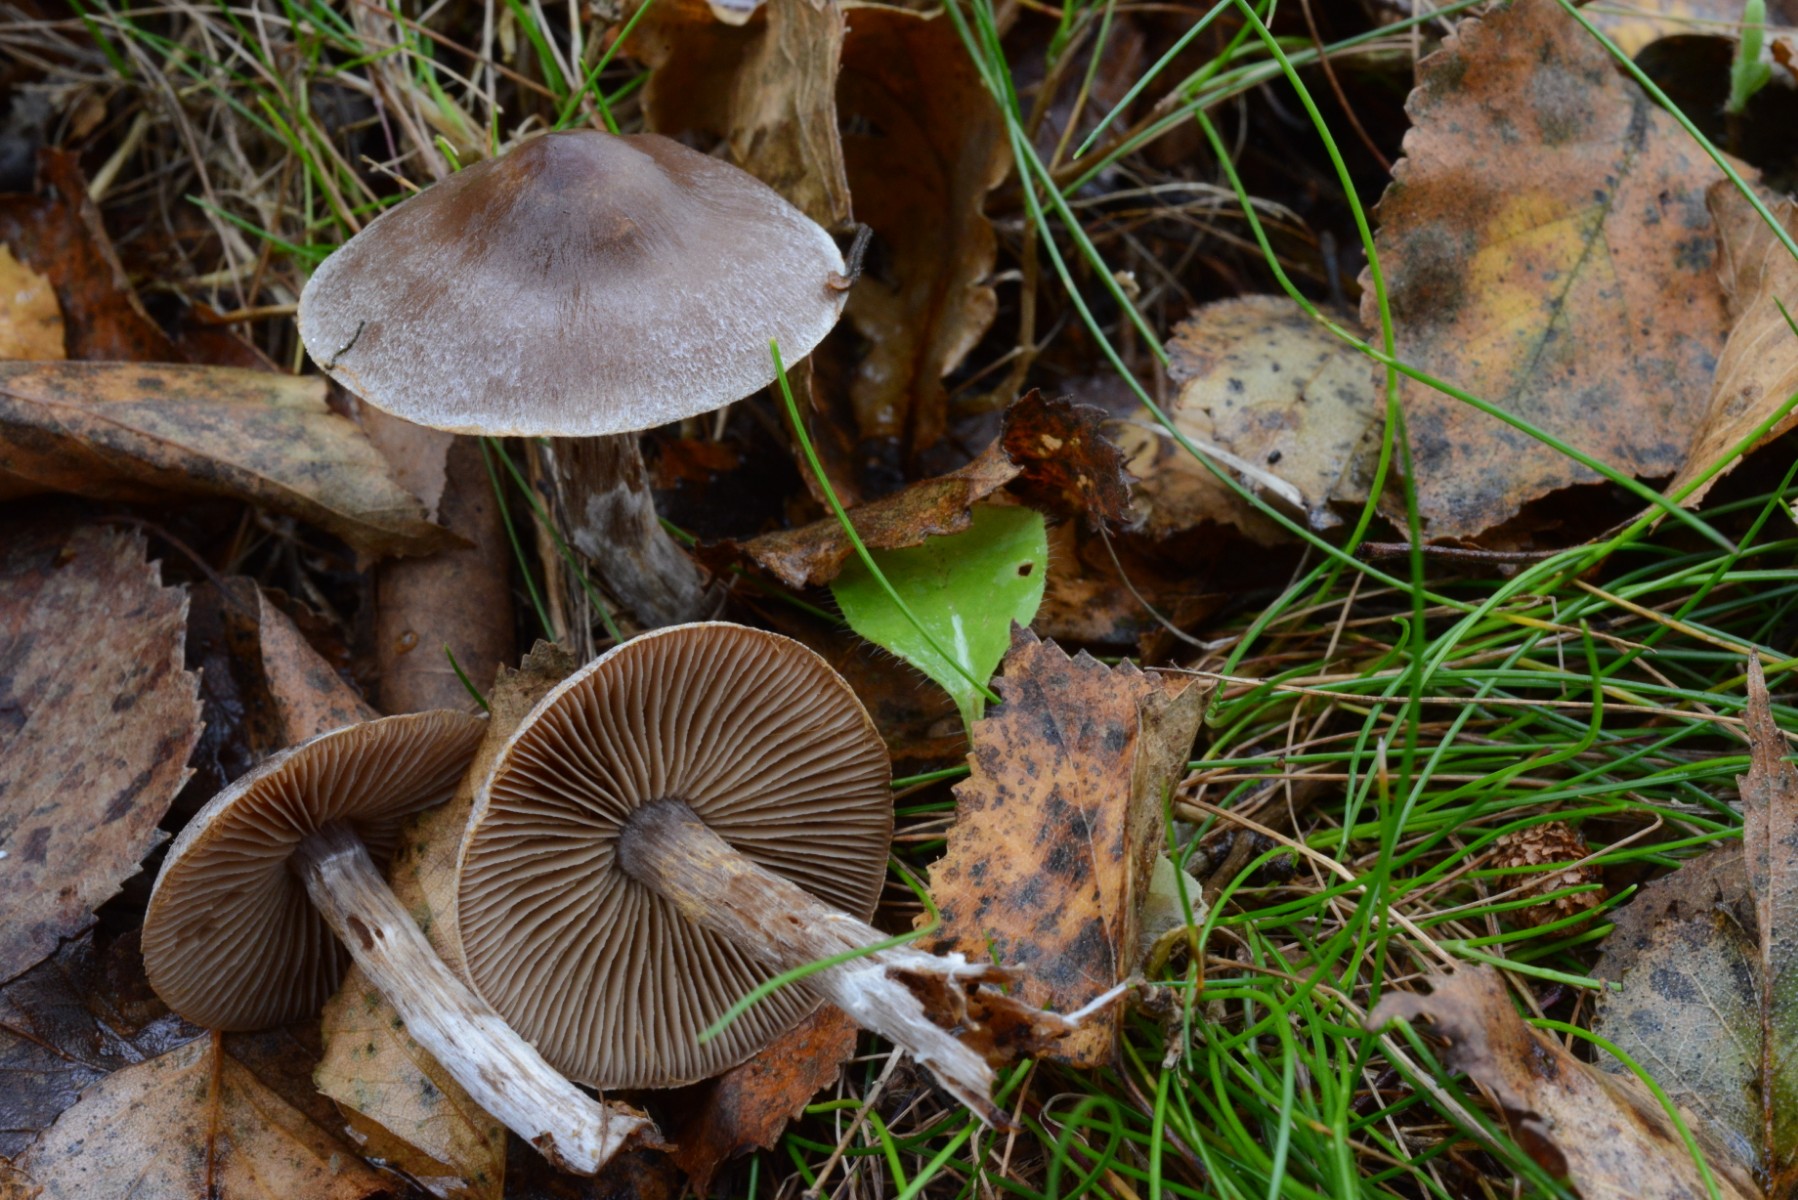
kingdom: Fungi
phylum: Basidiomycota
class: Agaricomycetes
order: Agaricales
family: Cortinariaceae
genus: Cortinarius
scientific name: Cortinarius hemitrichus
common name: hvidfnugget slørhat
